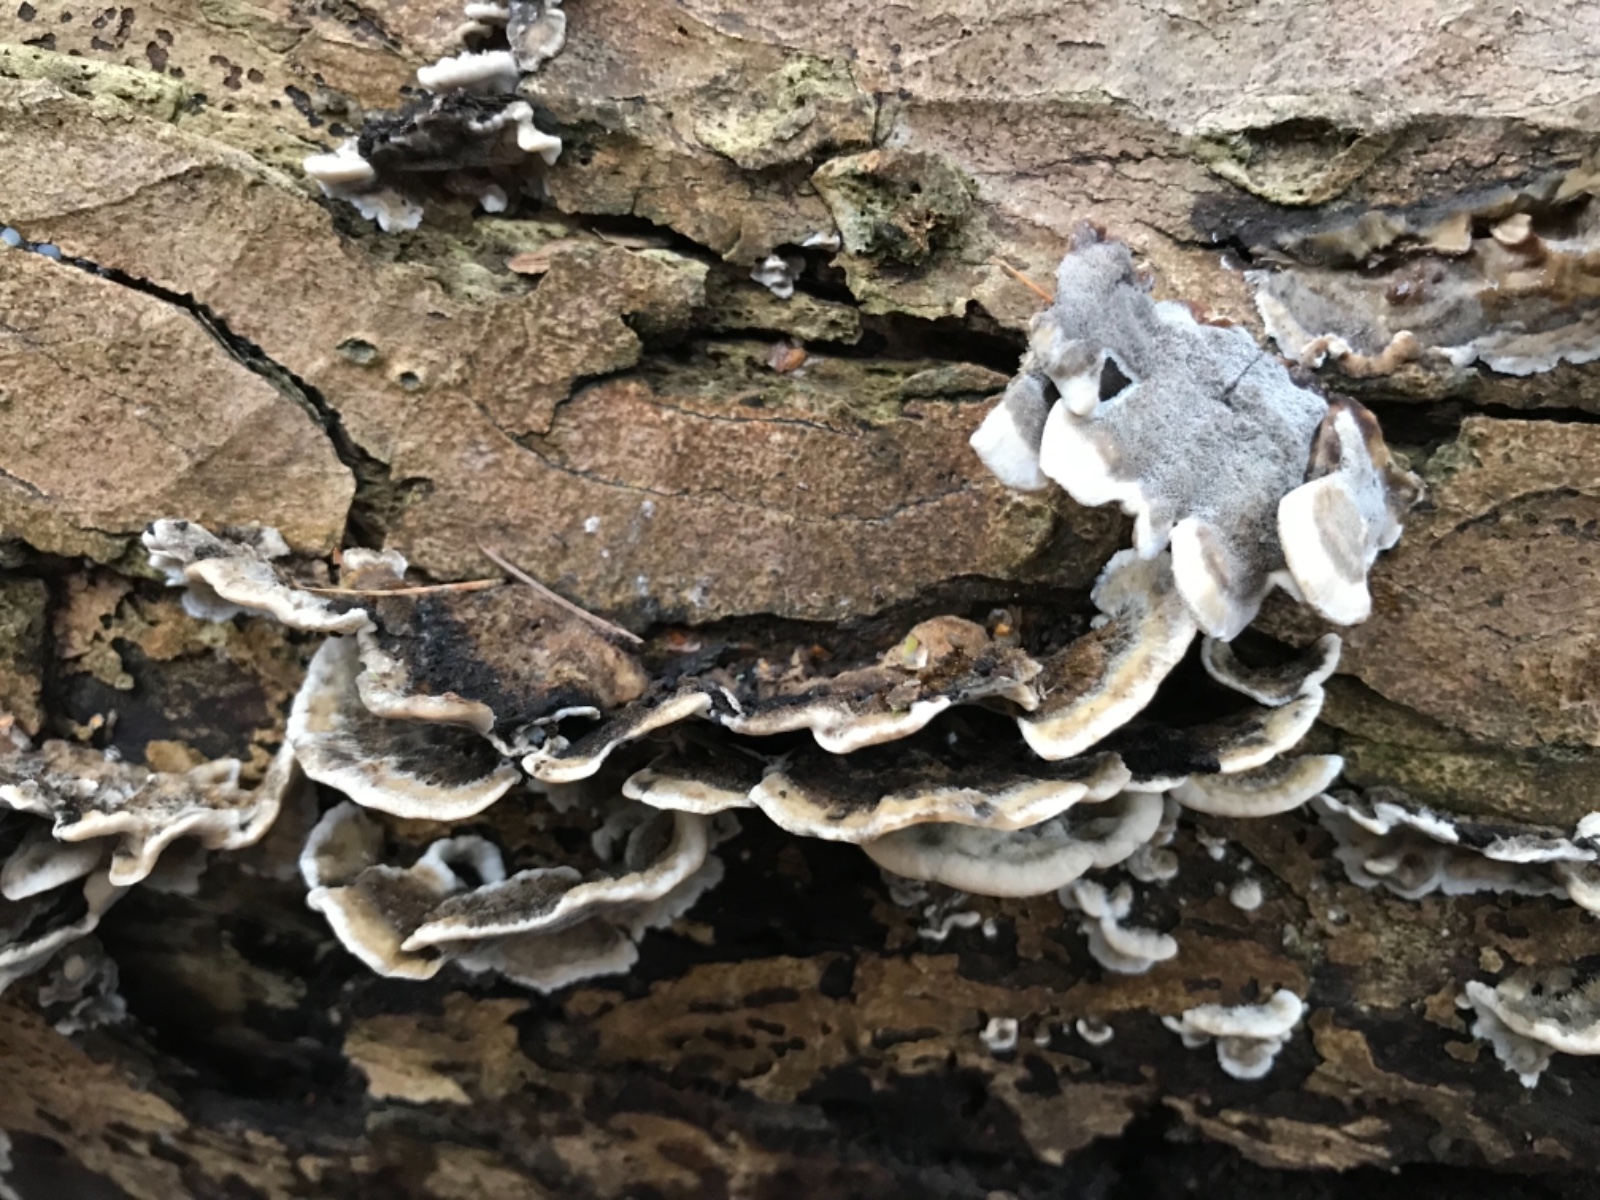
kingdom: Fungi
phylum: Basidiomycota
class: Agaricomycetes
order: Polyporales
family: Phanerochaetaceae
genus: Bjerkandera
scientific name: Bjerkandera adusta
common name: sveden sodporesvamp
